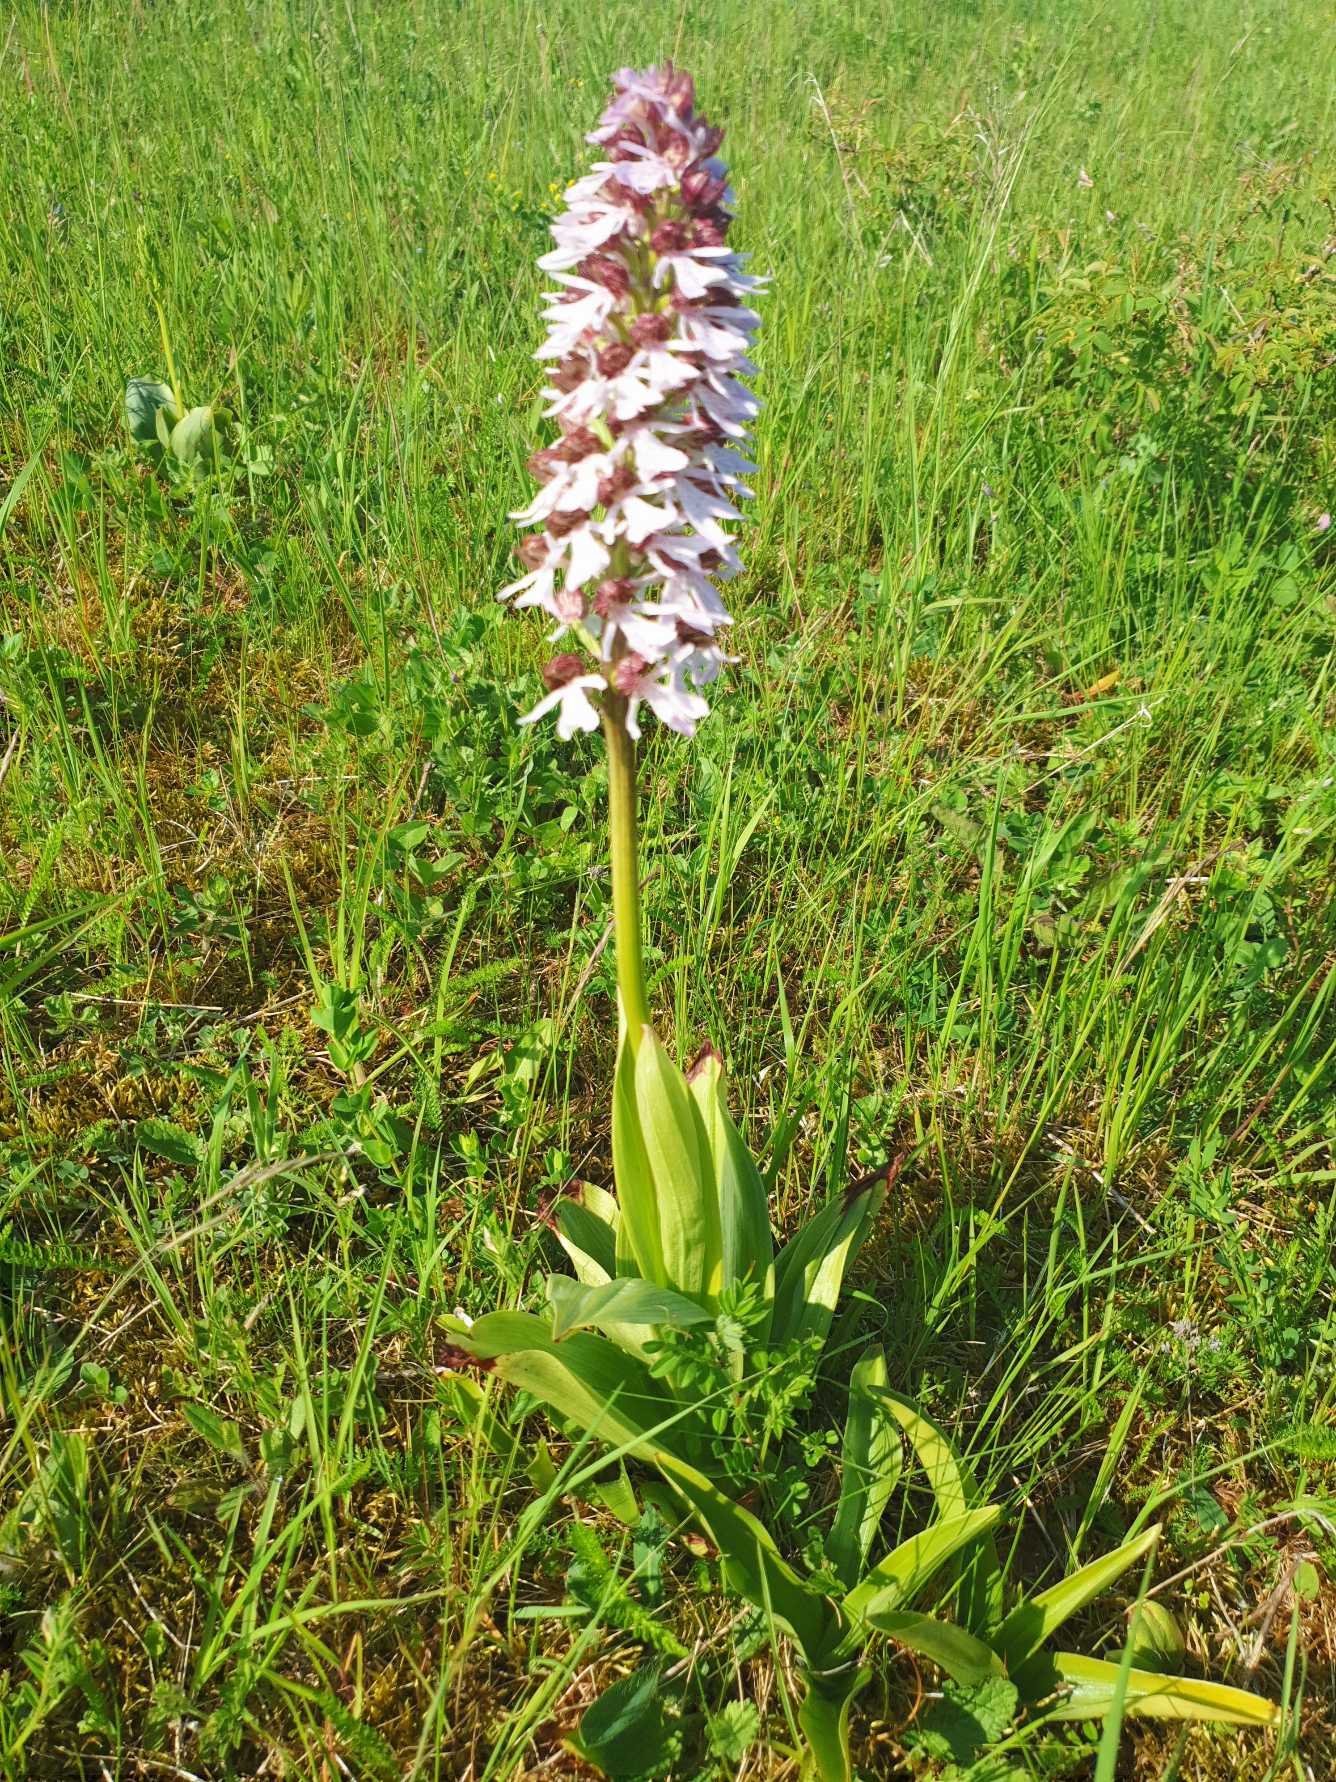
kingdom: Plantae
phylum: Tracheophyta
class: Liliopsida
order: Asparagales
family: Orchidaceae
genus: Orchis
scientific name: Orchis purpurea
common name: Stor gøgeurt
